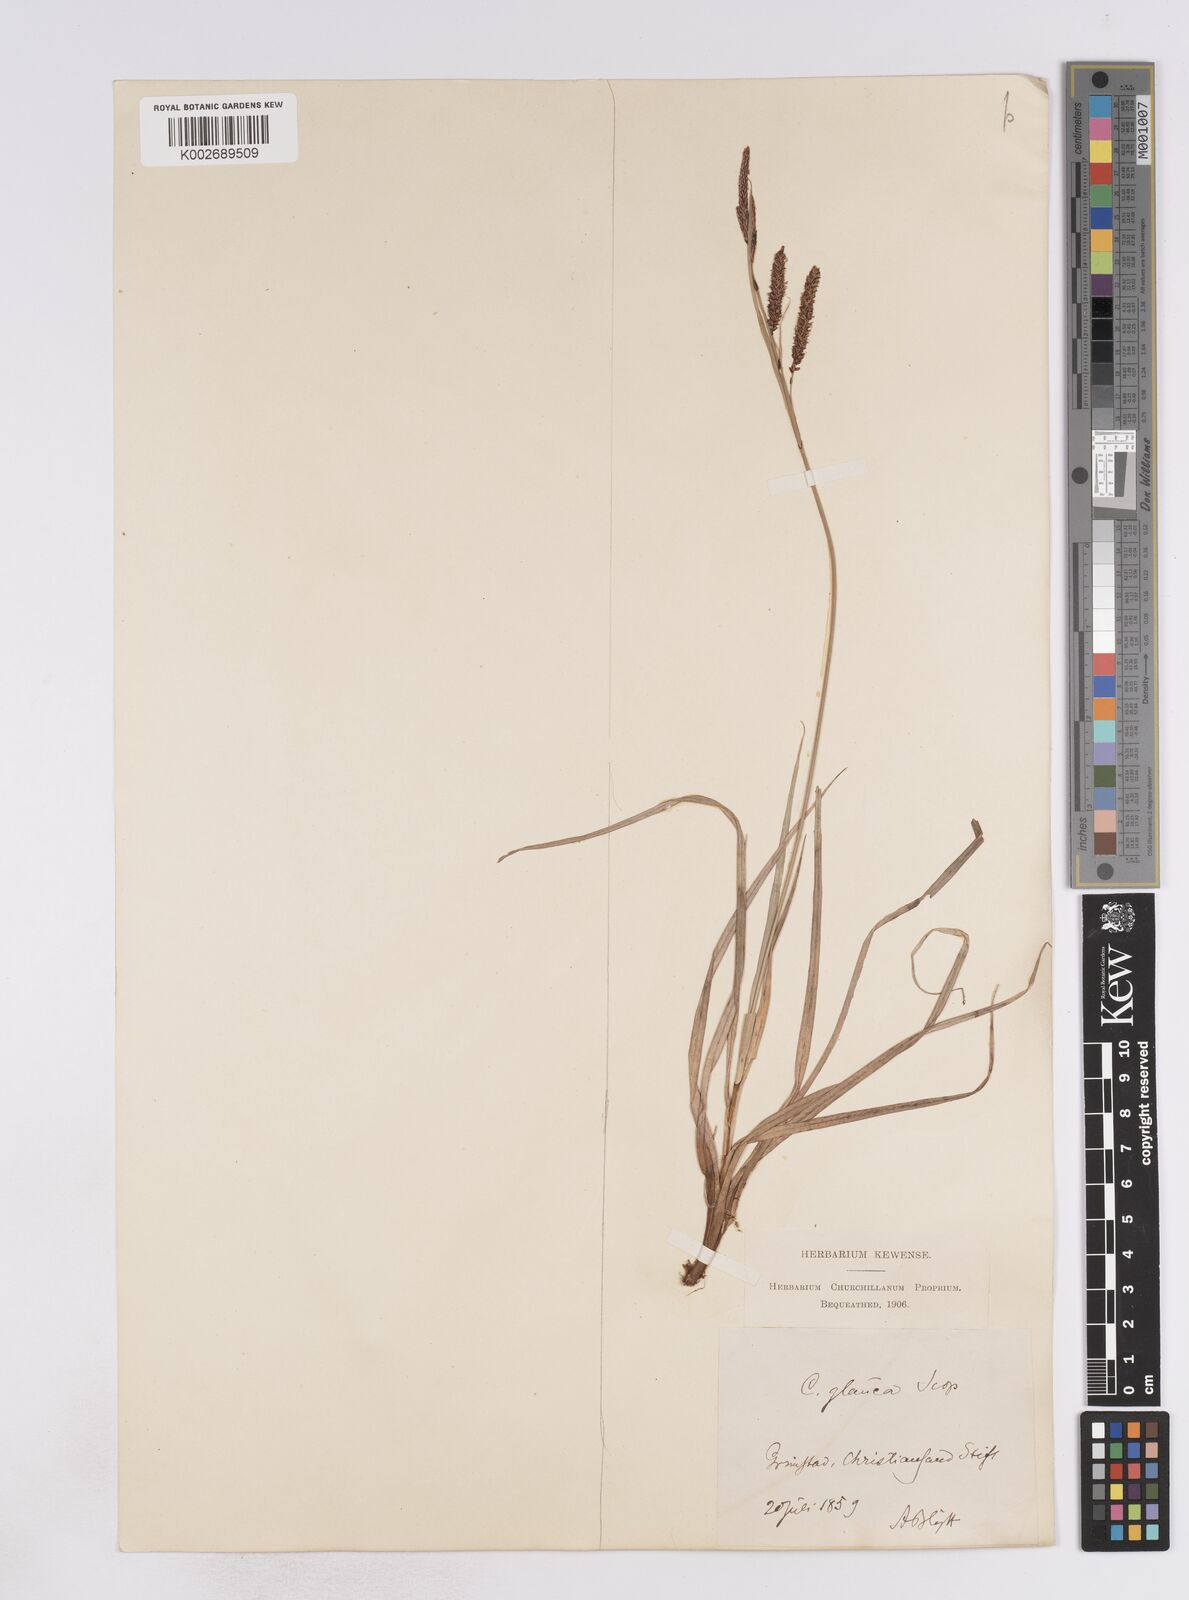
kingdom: Plantae
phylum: Tracheophyta
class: Liliopsida
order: Poales
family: Cyperaceae
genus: Carex
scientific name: Carex flacca
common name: Glaucous sedge
